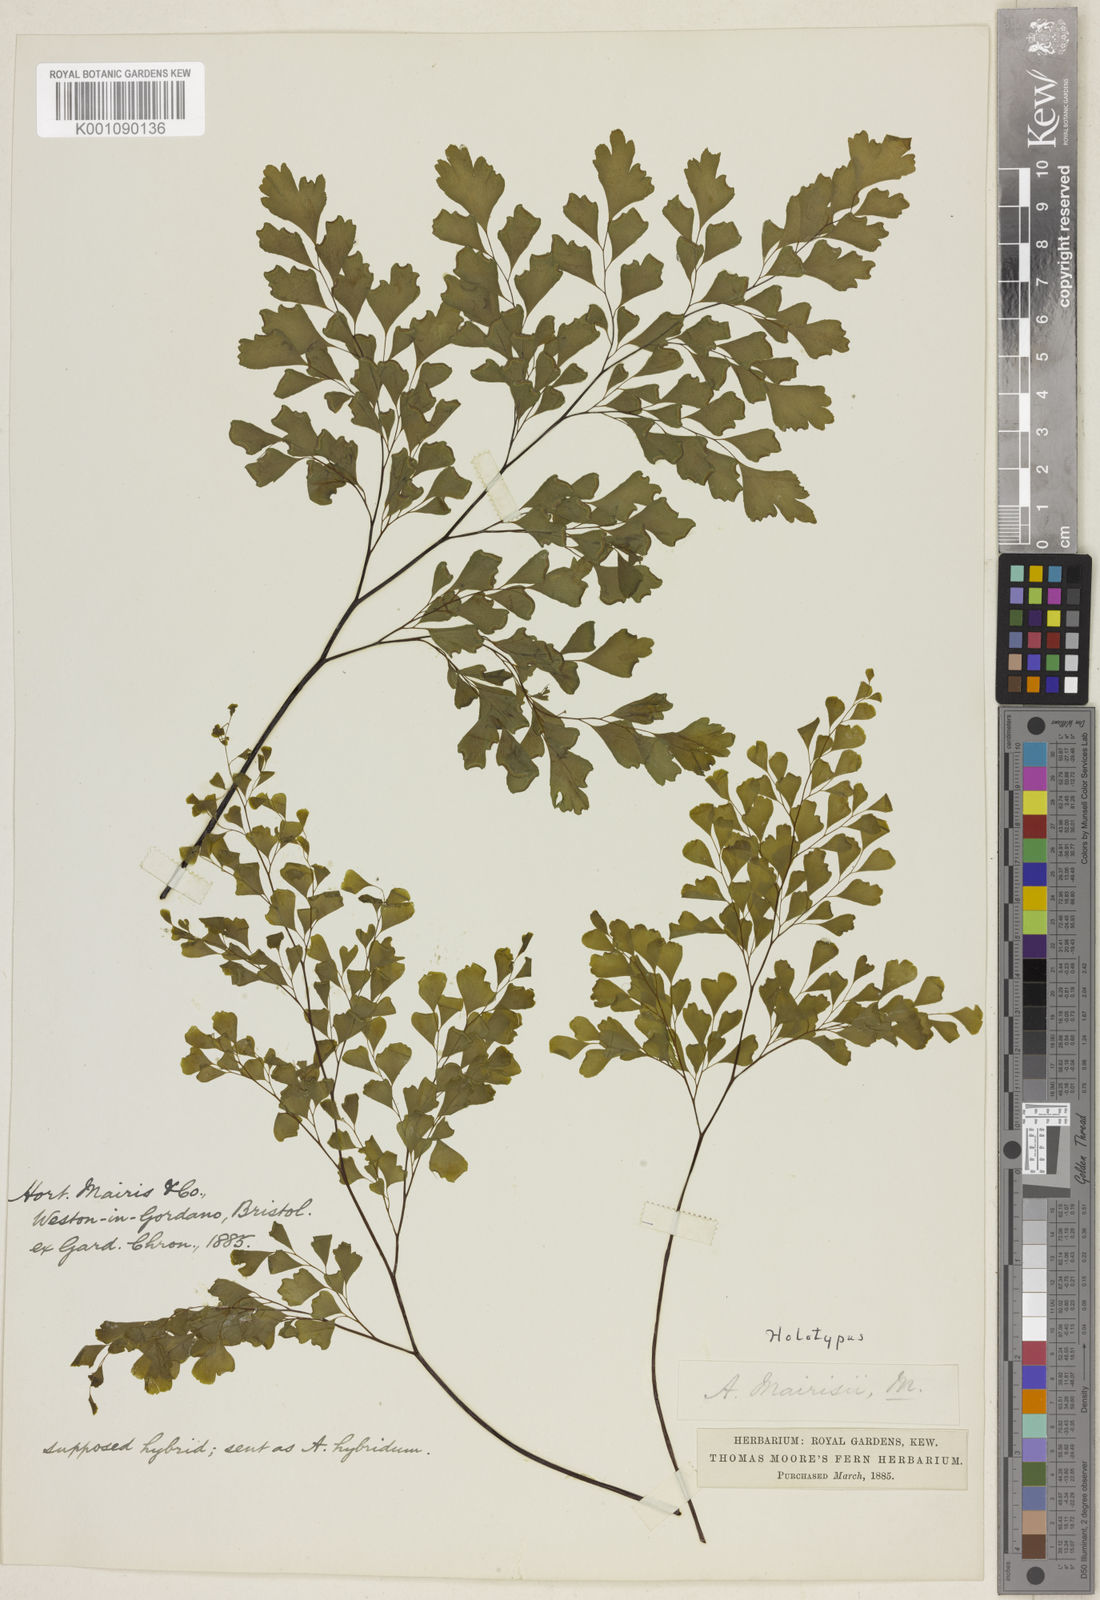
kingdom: Plantae
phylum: Tracheophyta
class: Polypodiopsida
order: Polypodiales
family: Pteridaceae
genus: Adiantum
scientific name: Adiantum capillus-veneris
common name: Maidenhair fern
